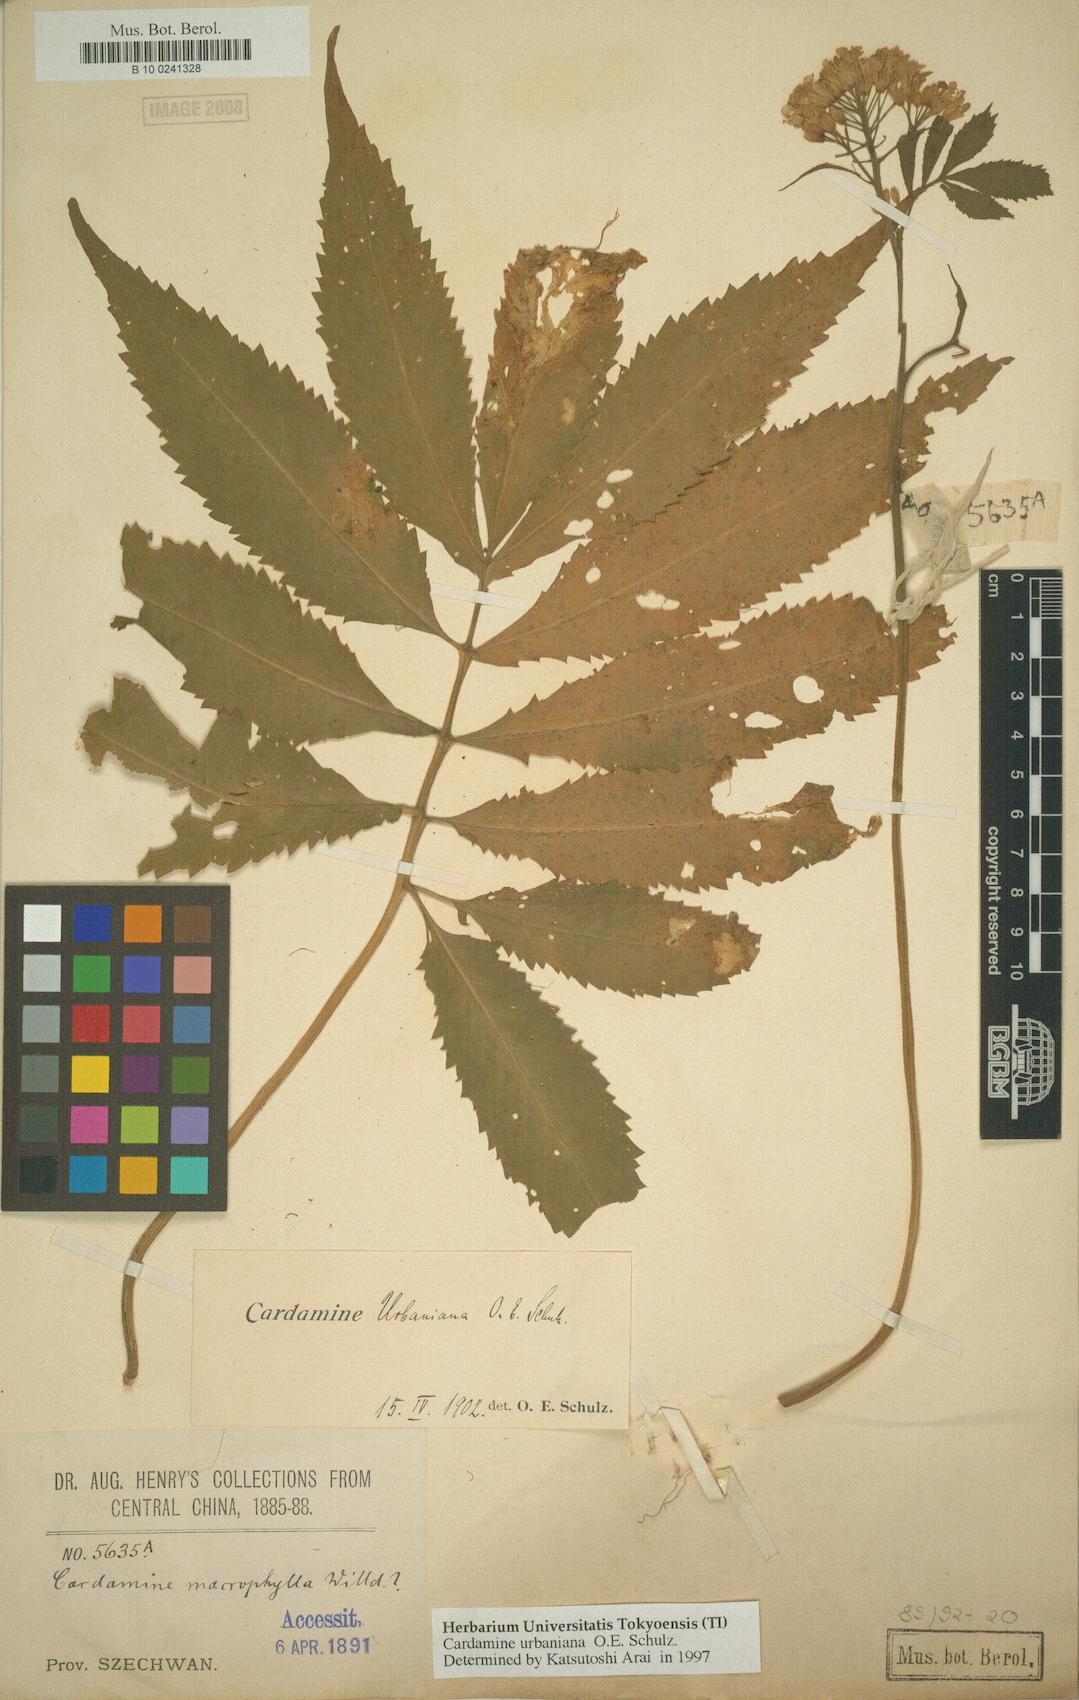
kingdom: Plantae
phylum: Tracheophyta
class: Magnoliopsida
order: Brassicales
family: Brassicaceae
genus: Cardamine
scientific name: Cardamine macrophylla
